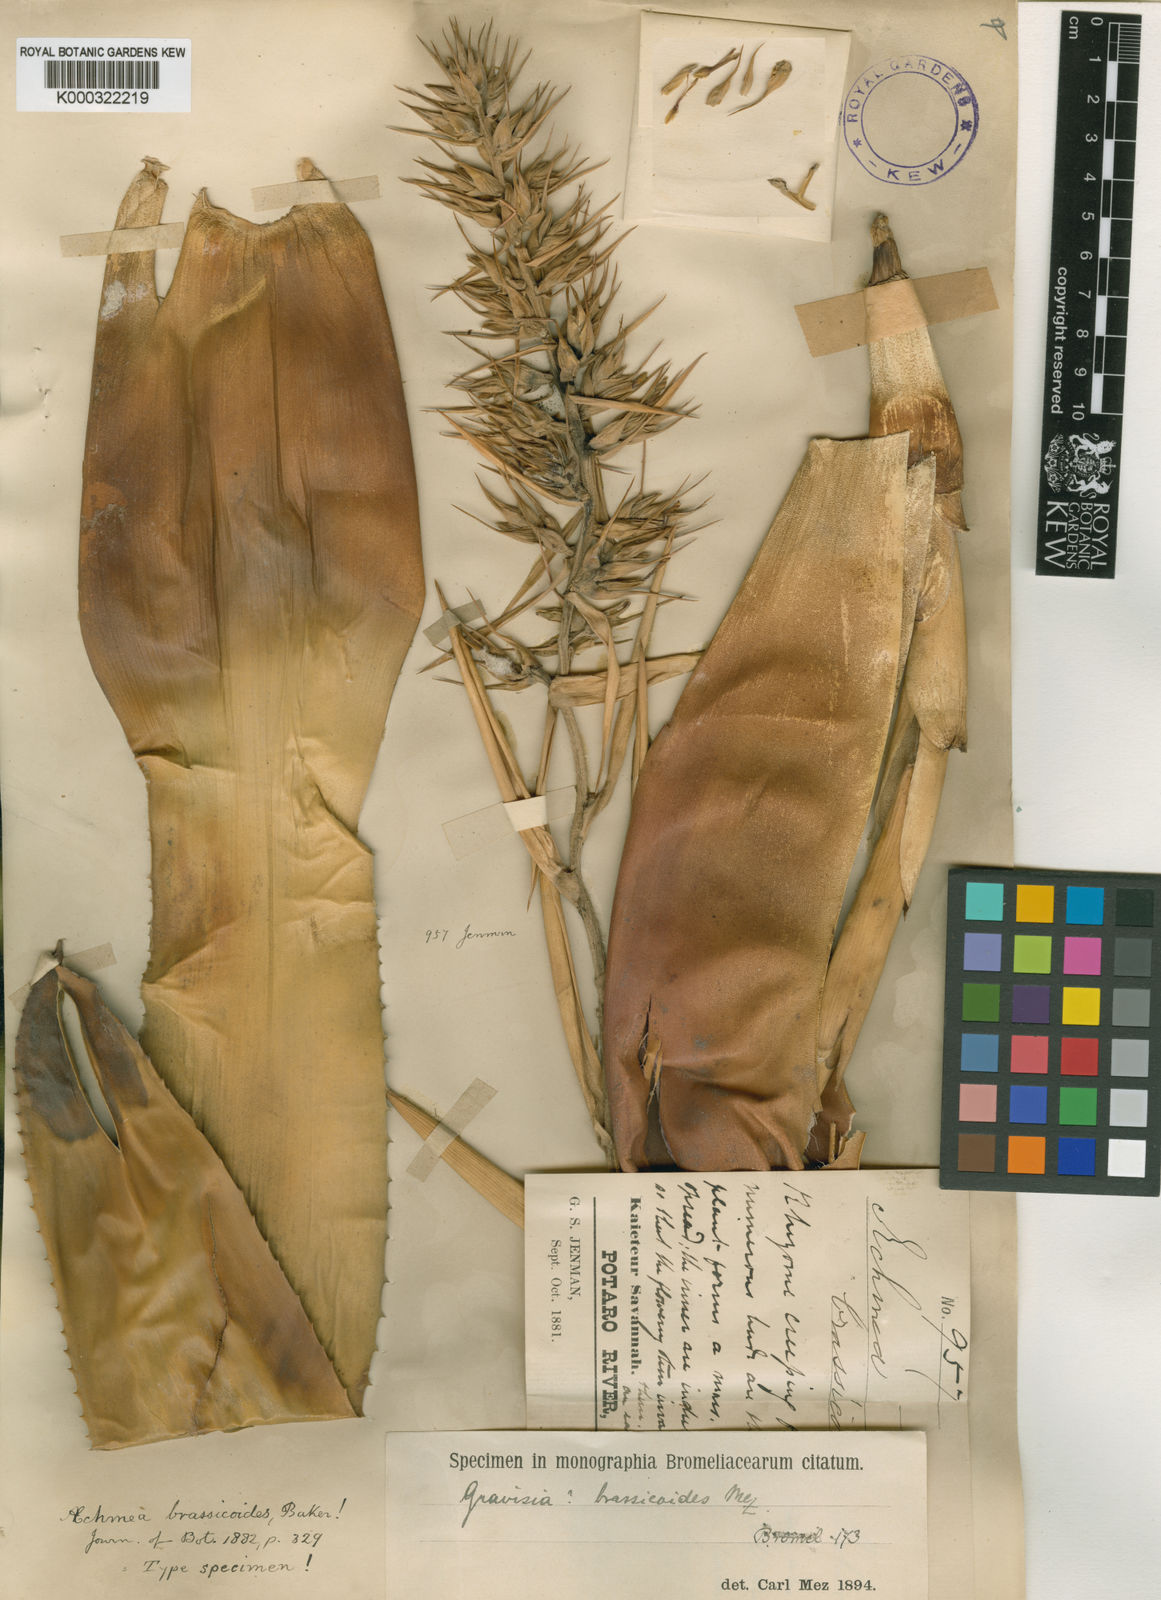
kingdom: Plantae
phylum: Tracheophyta
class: Liliopsida
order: Poales
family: Bromeliaceae
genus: Aechmea
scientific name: Aechmea brassicoides
